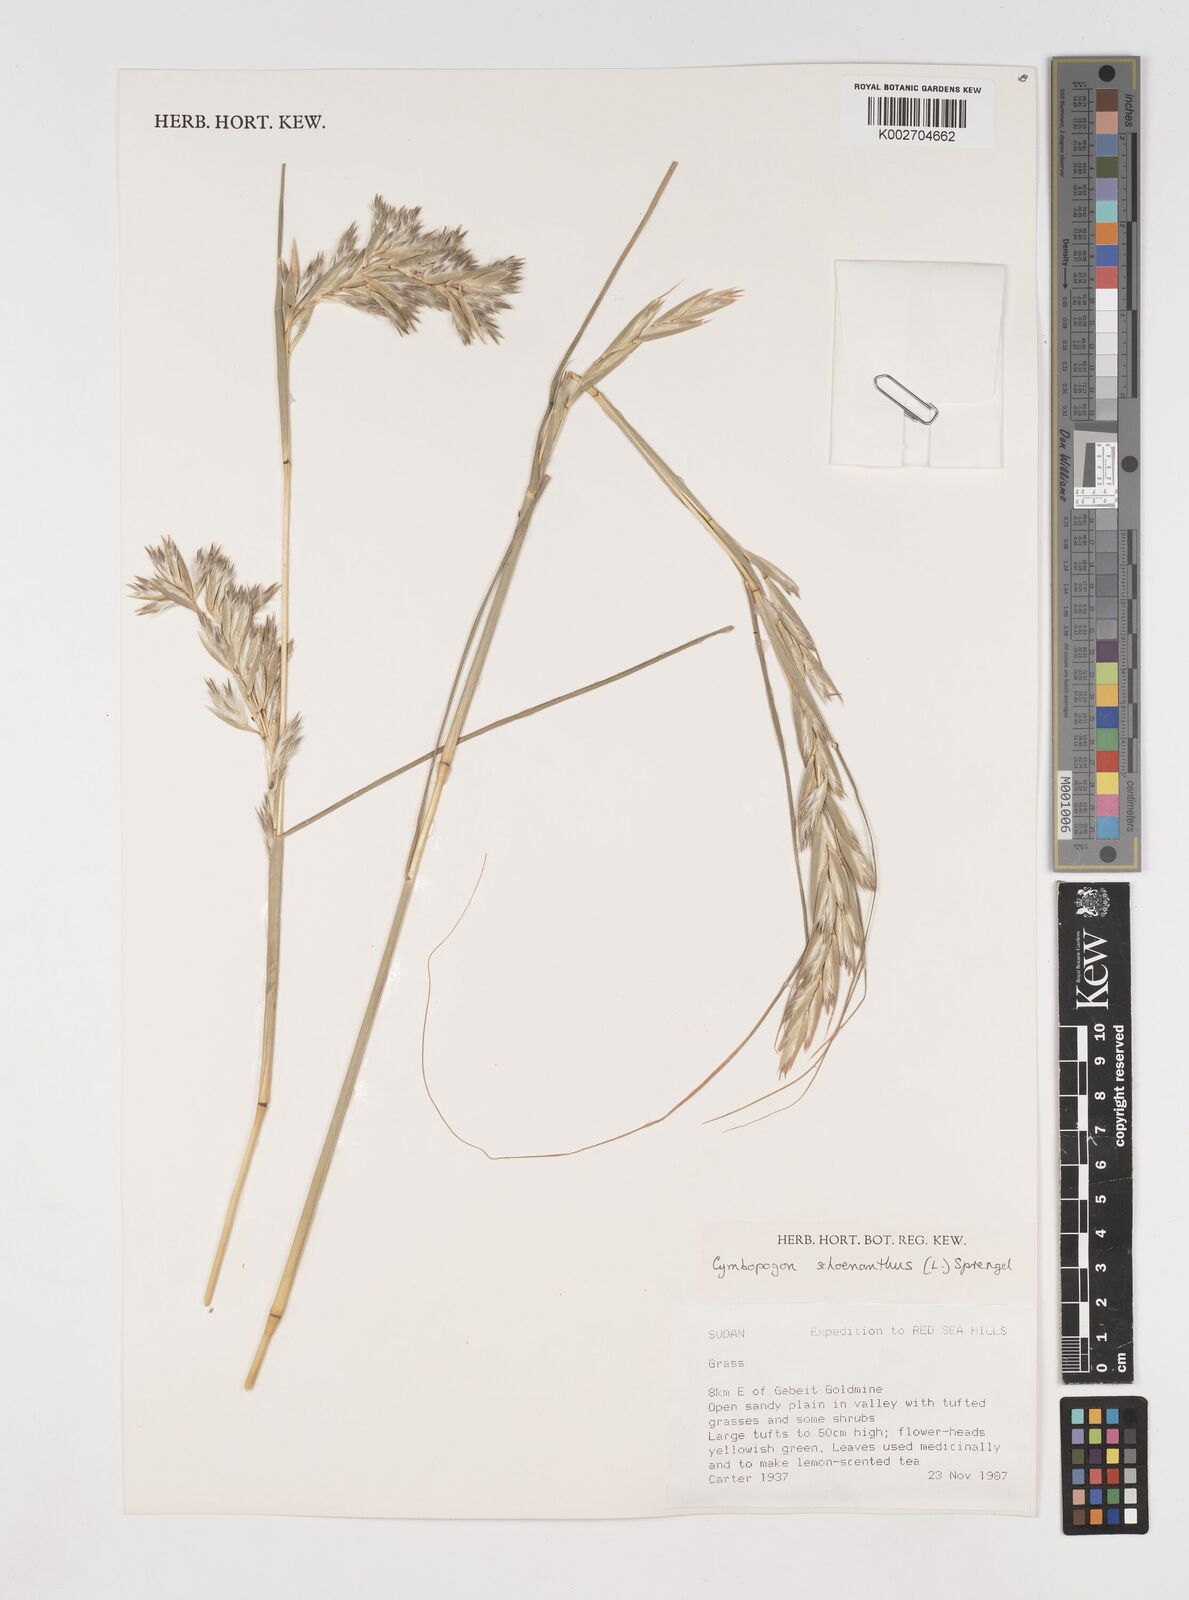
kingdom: Plantae
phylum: Tracheophyta
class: Liliopsida
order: Poales
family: Poaceae
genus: Cymbopogon
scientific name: Cymbopogon schoenanthus
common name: Geranium grass
